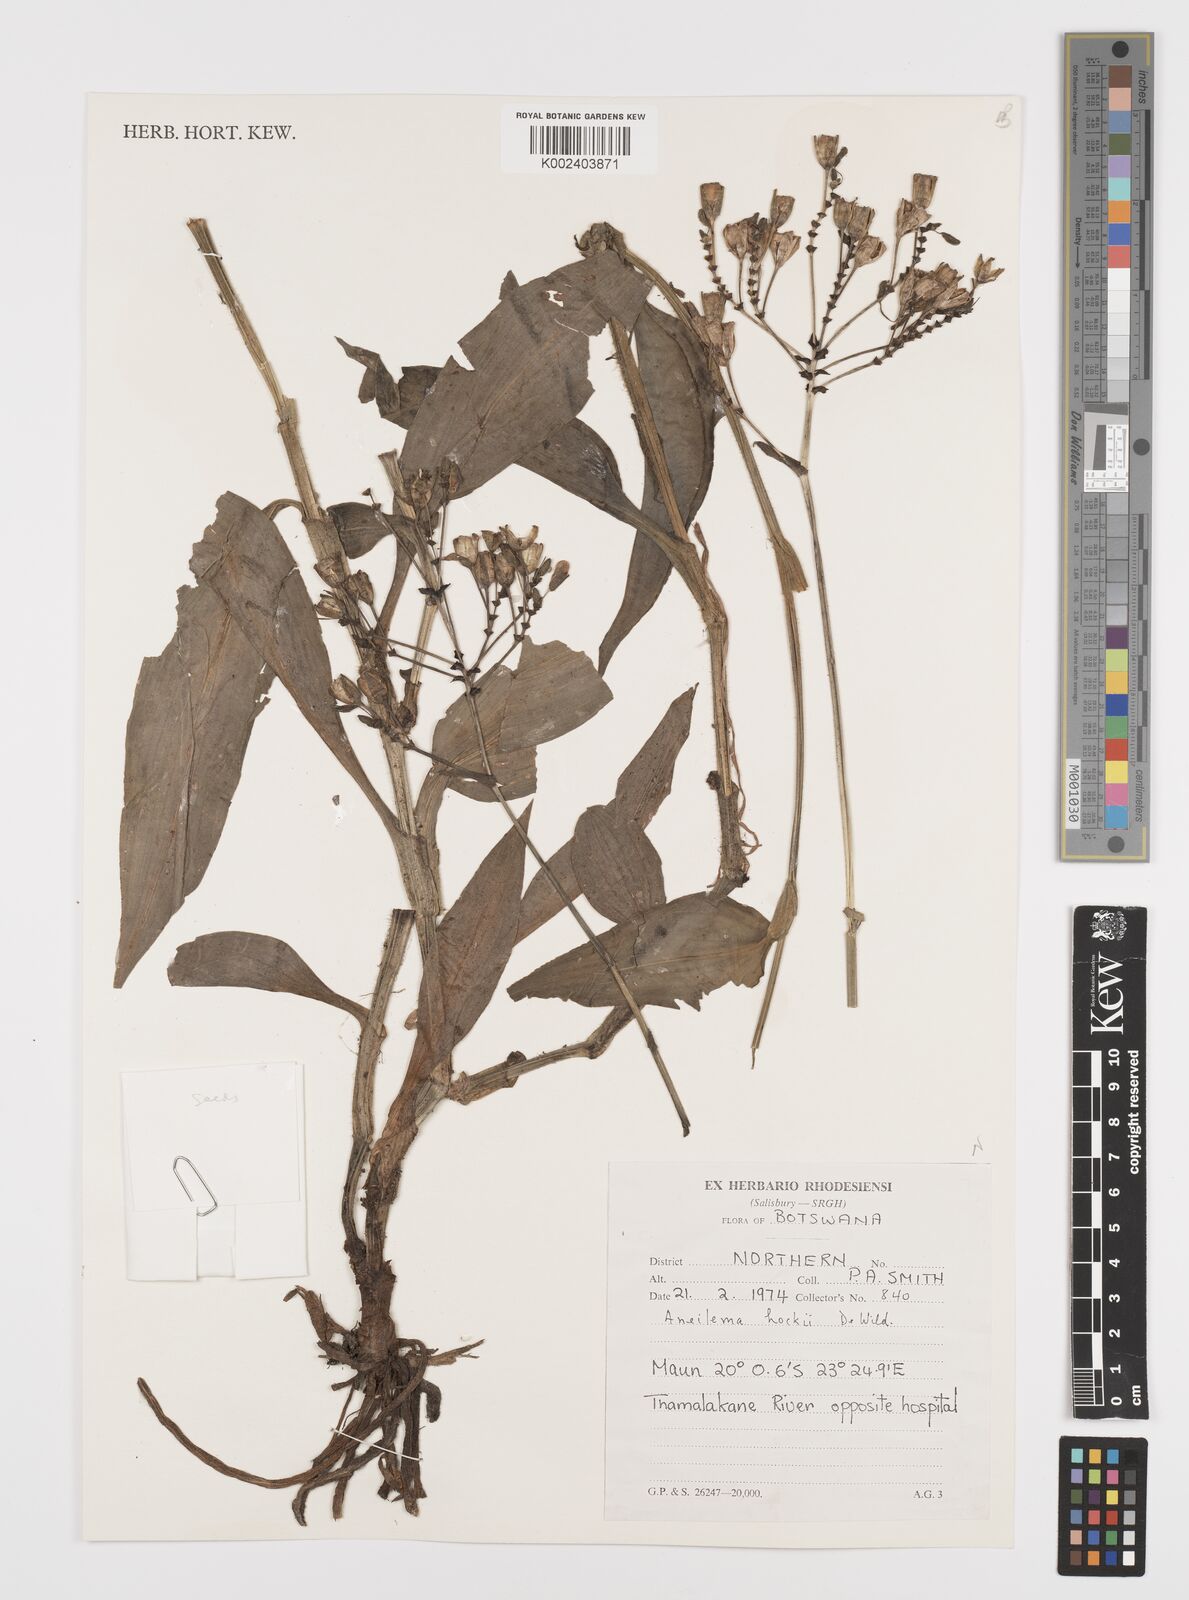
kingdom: Plantae
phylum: Tracheophyta
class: Liliopsida
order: Commelinales
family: Commelinaceae
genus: Aneilema
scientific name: Aneilema hockii
